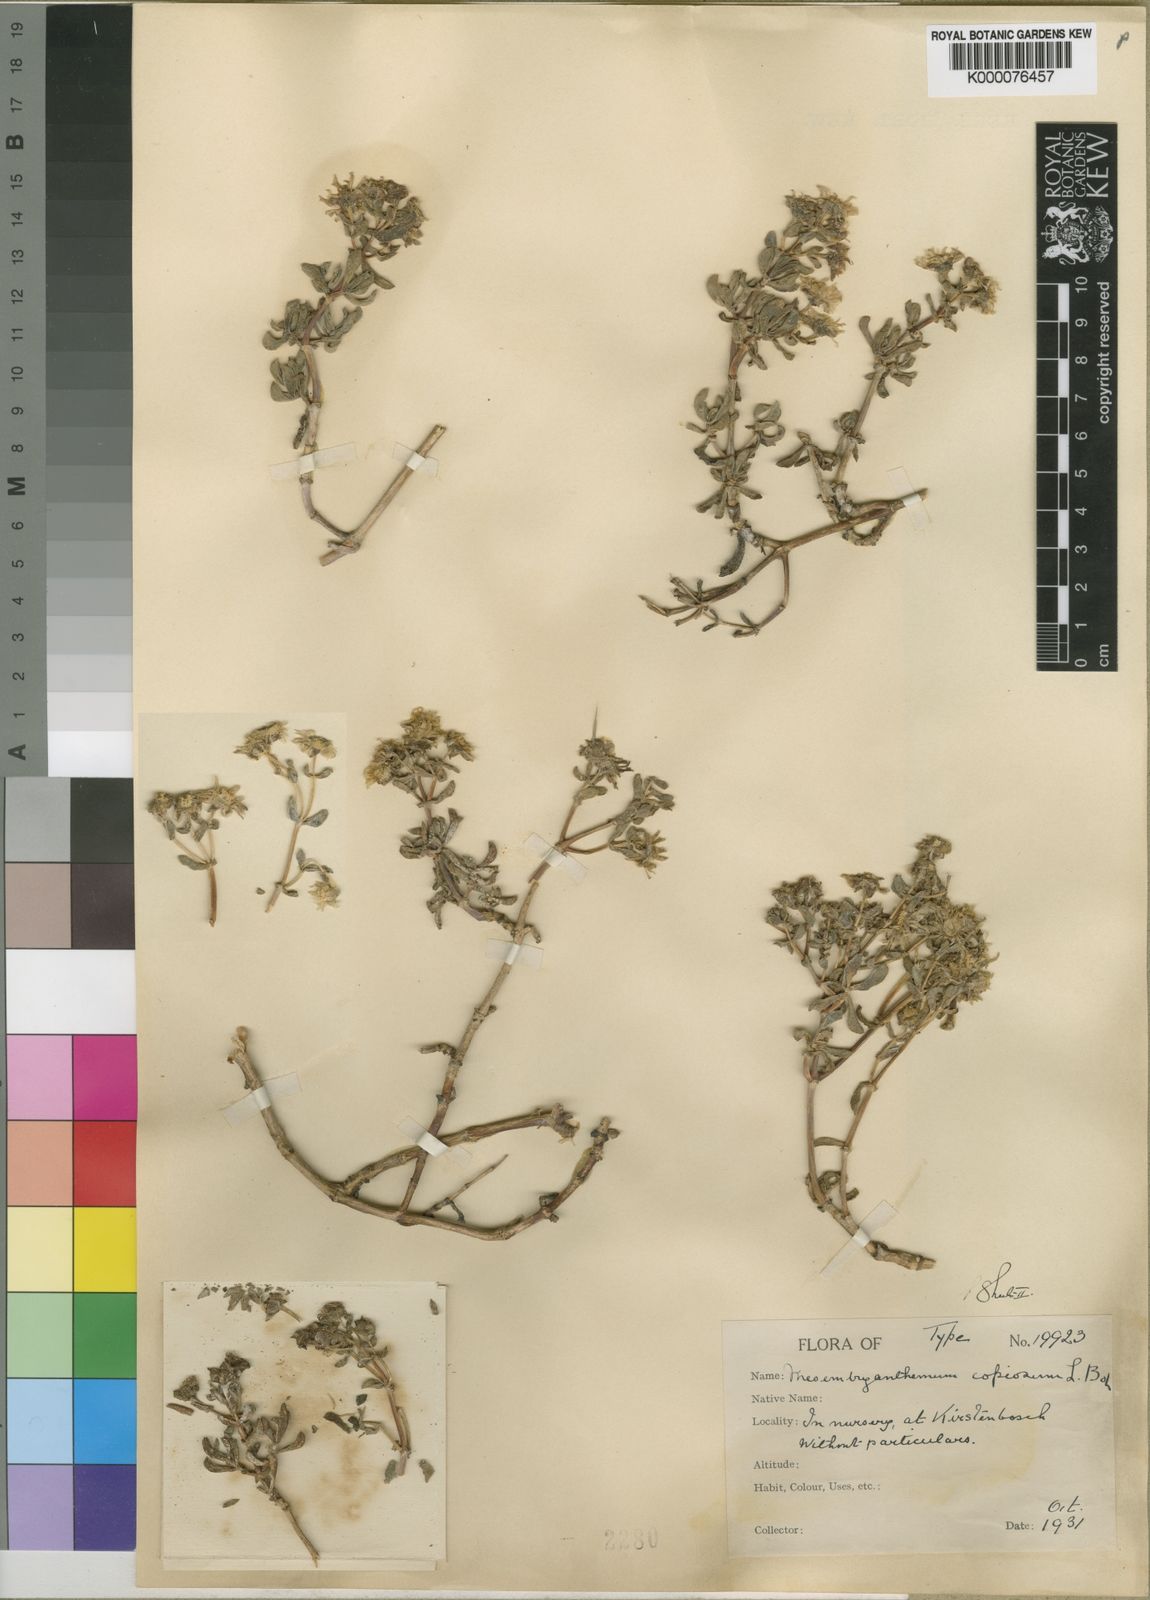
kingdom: Plantae
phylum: Tracheophyta
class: Magnoliopsida
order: Caryophyllales
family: Aizoaceae
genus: Oscularia
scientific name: Oscularia copiosa
